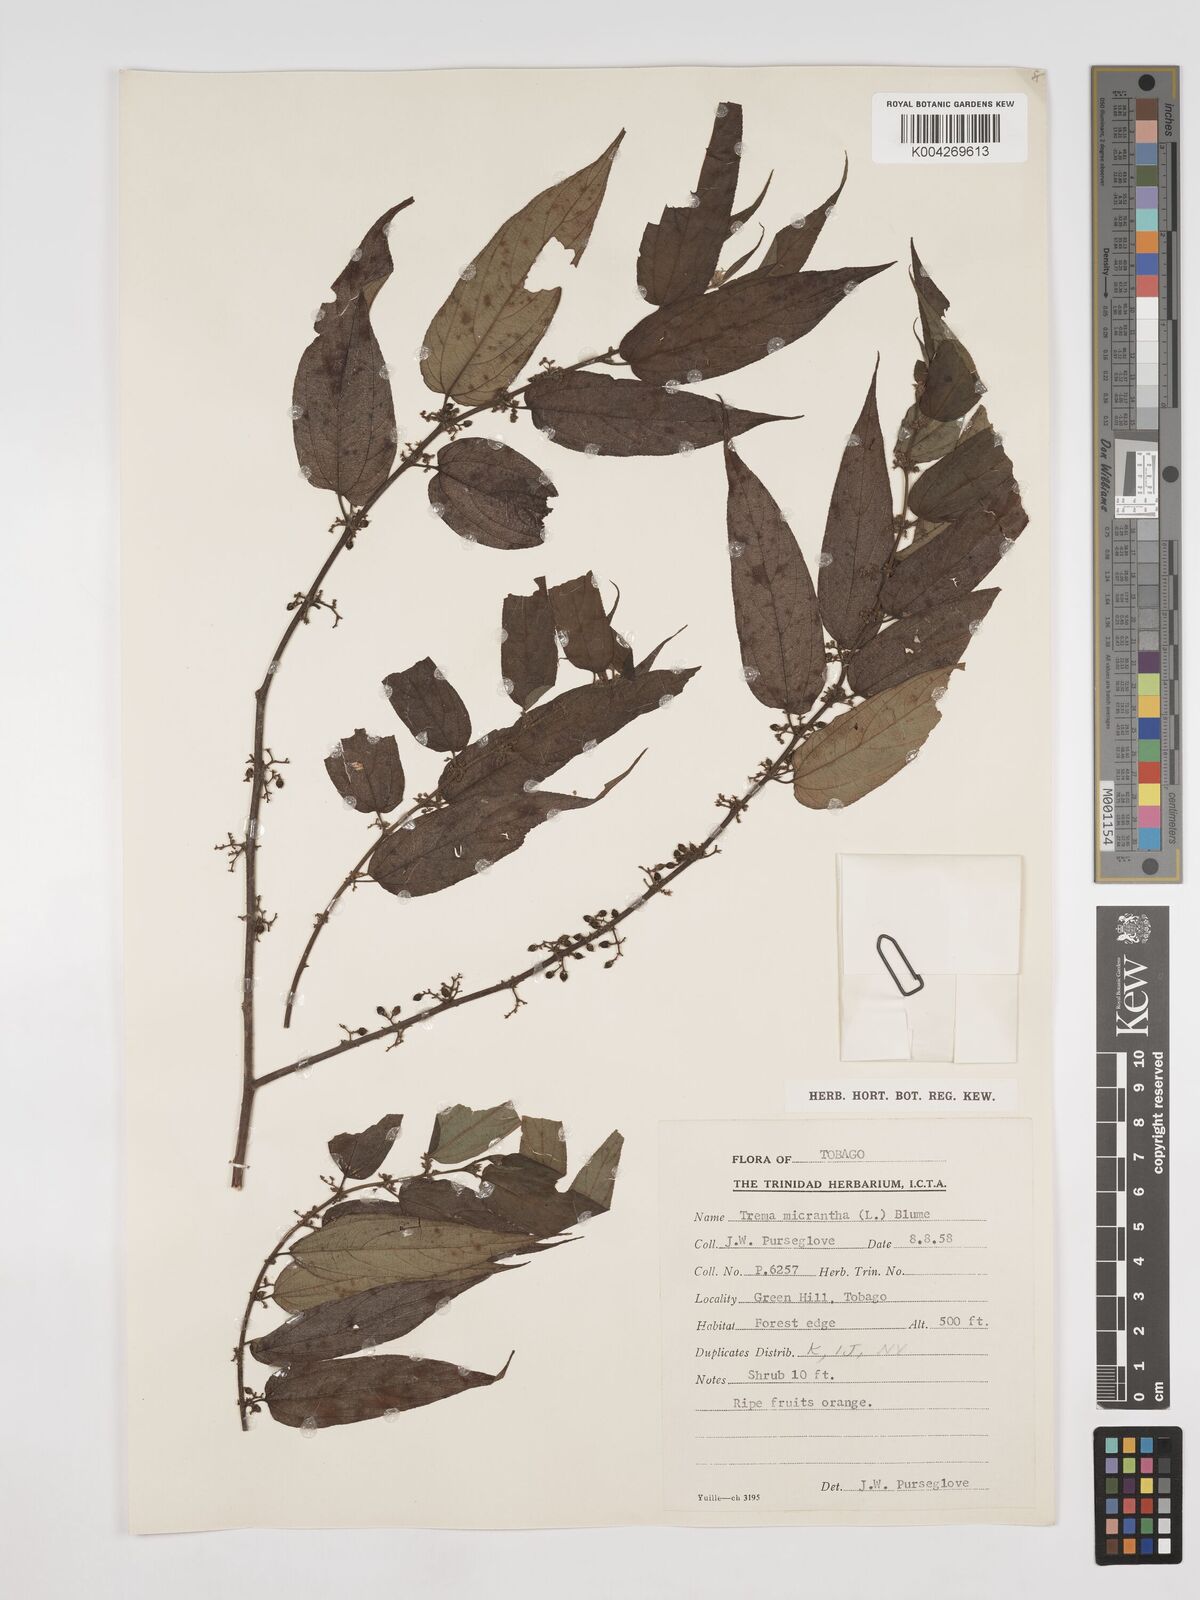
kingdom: Plantae
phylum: Tracheophyta
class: Magnoliopsida
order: Rosales
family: Cannabaceae
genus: Trema
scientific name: Trema micranthum
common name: Jamaican nettletree
